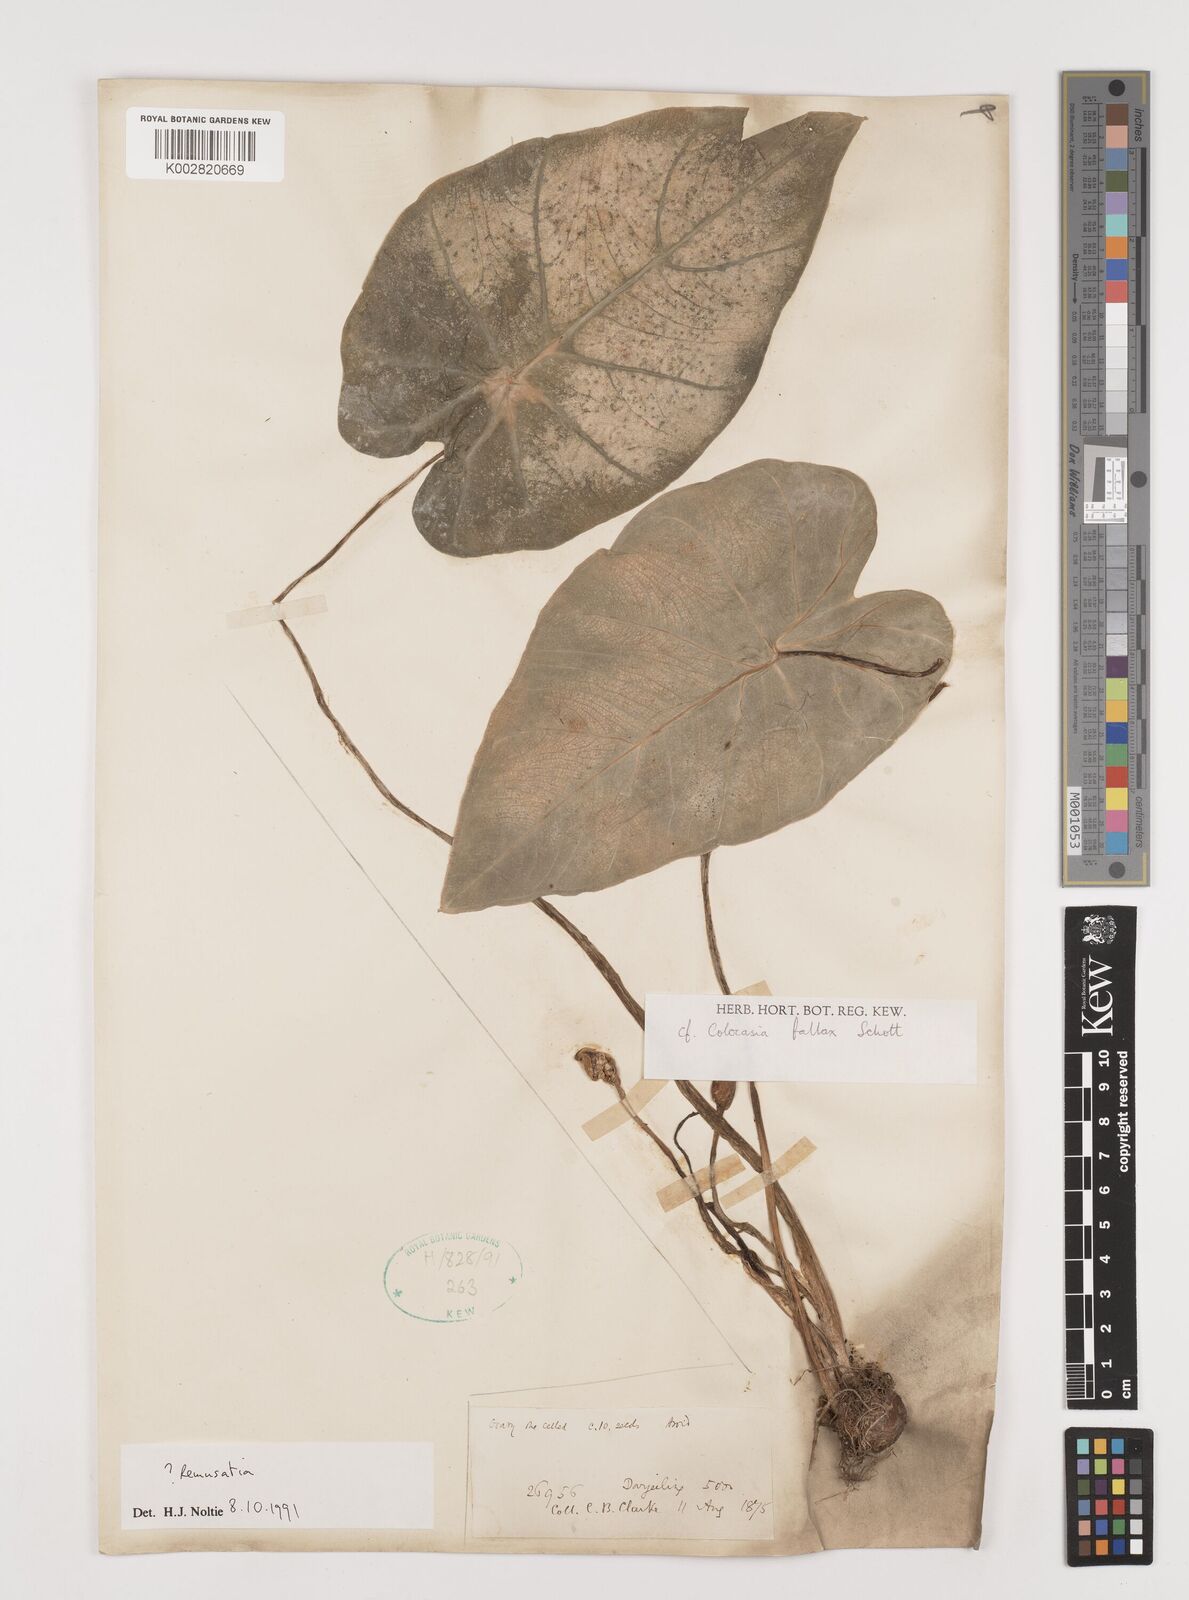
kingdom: Plantae
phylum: Tracheophyta
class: Liliopsida
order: Alismatales
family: Araceae
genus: Remusatia
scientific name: Remusatia pumila
